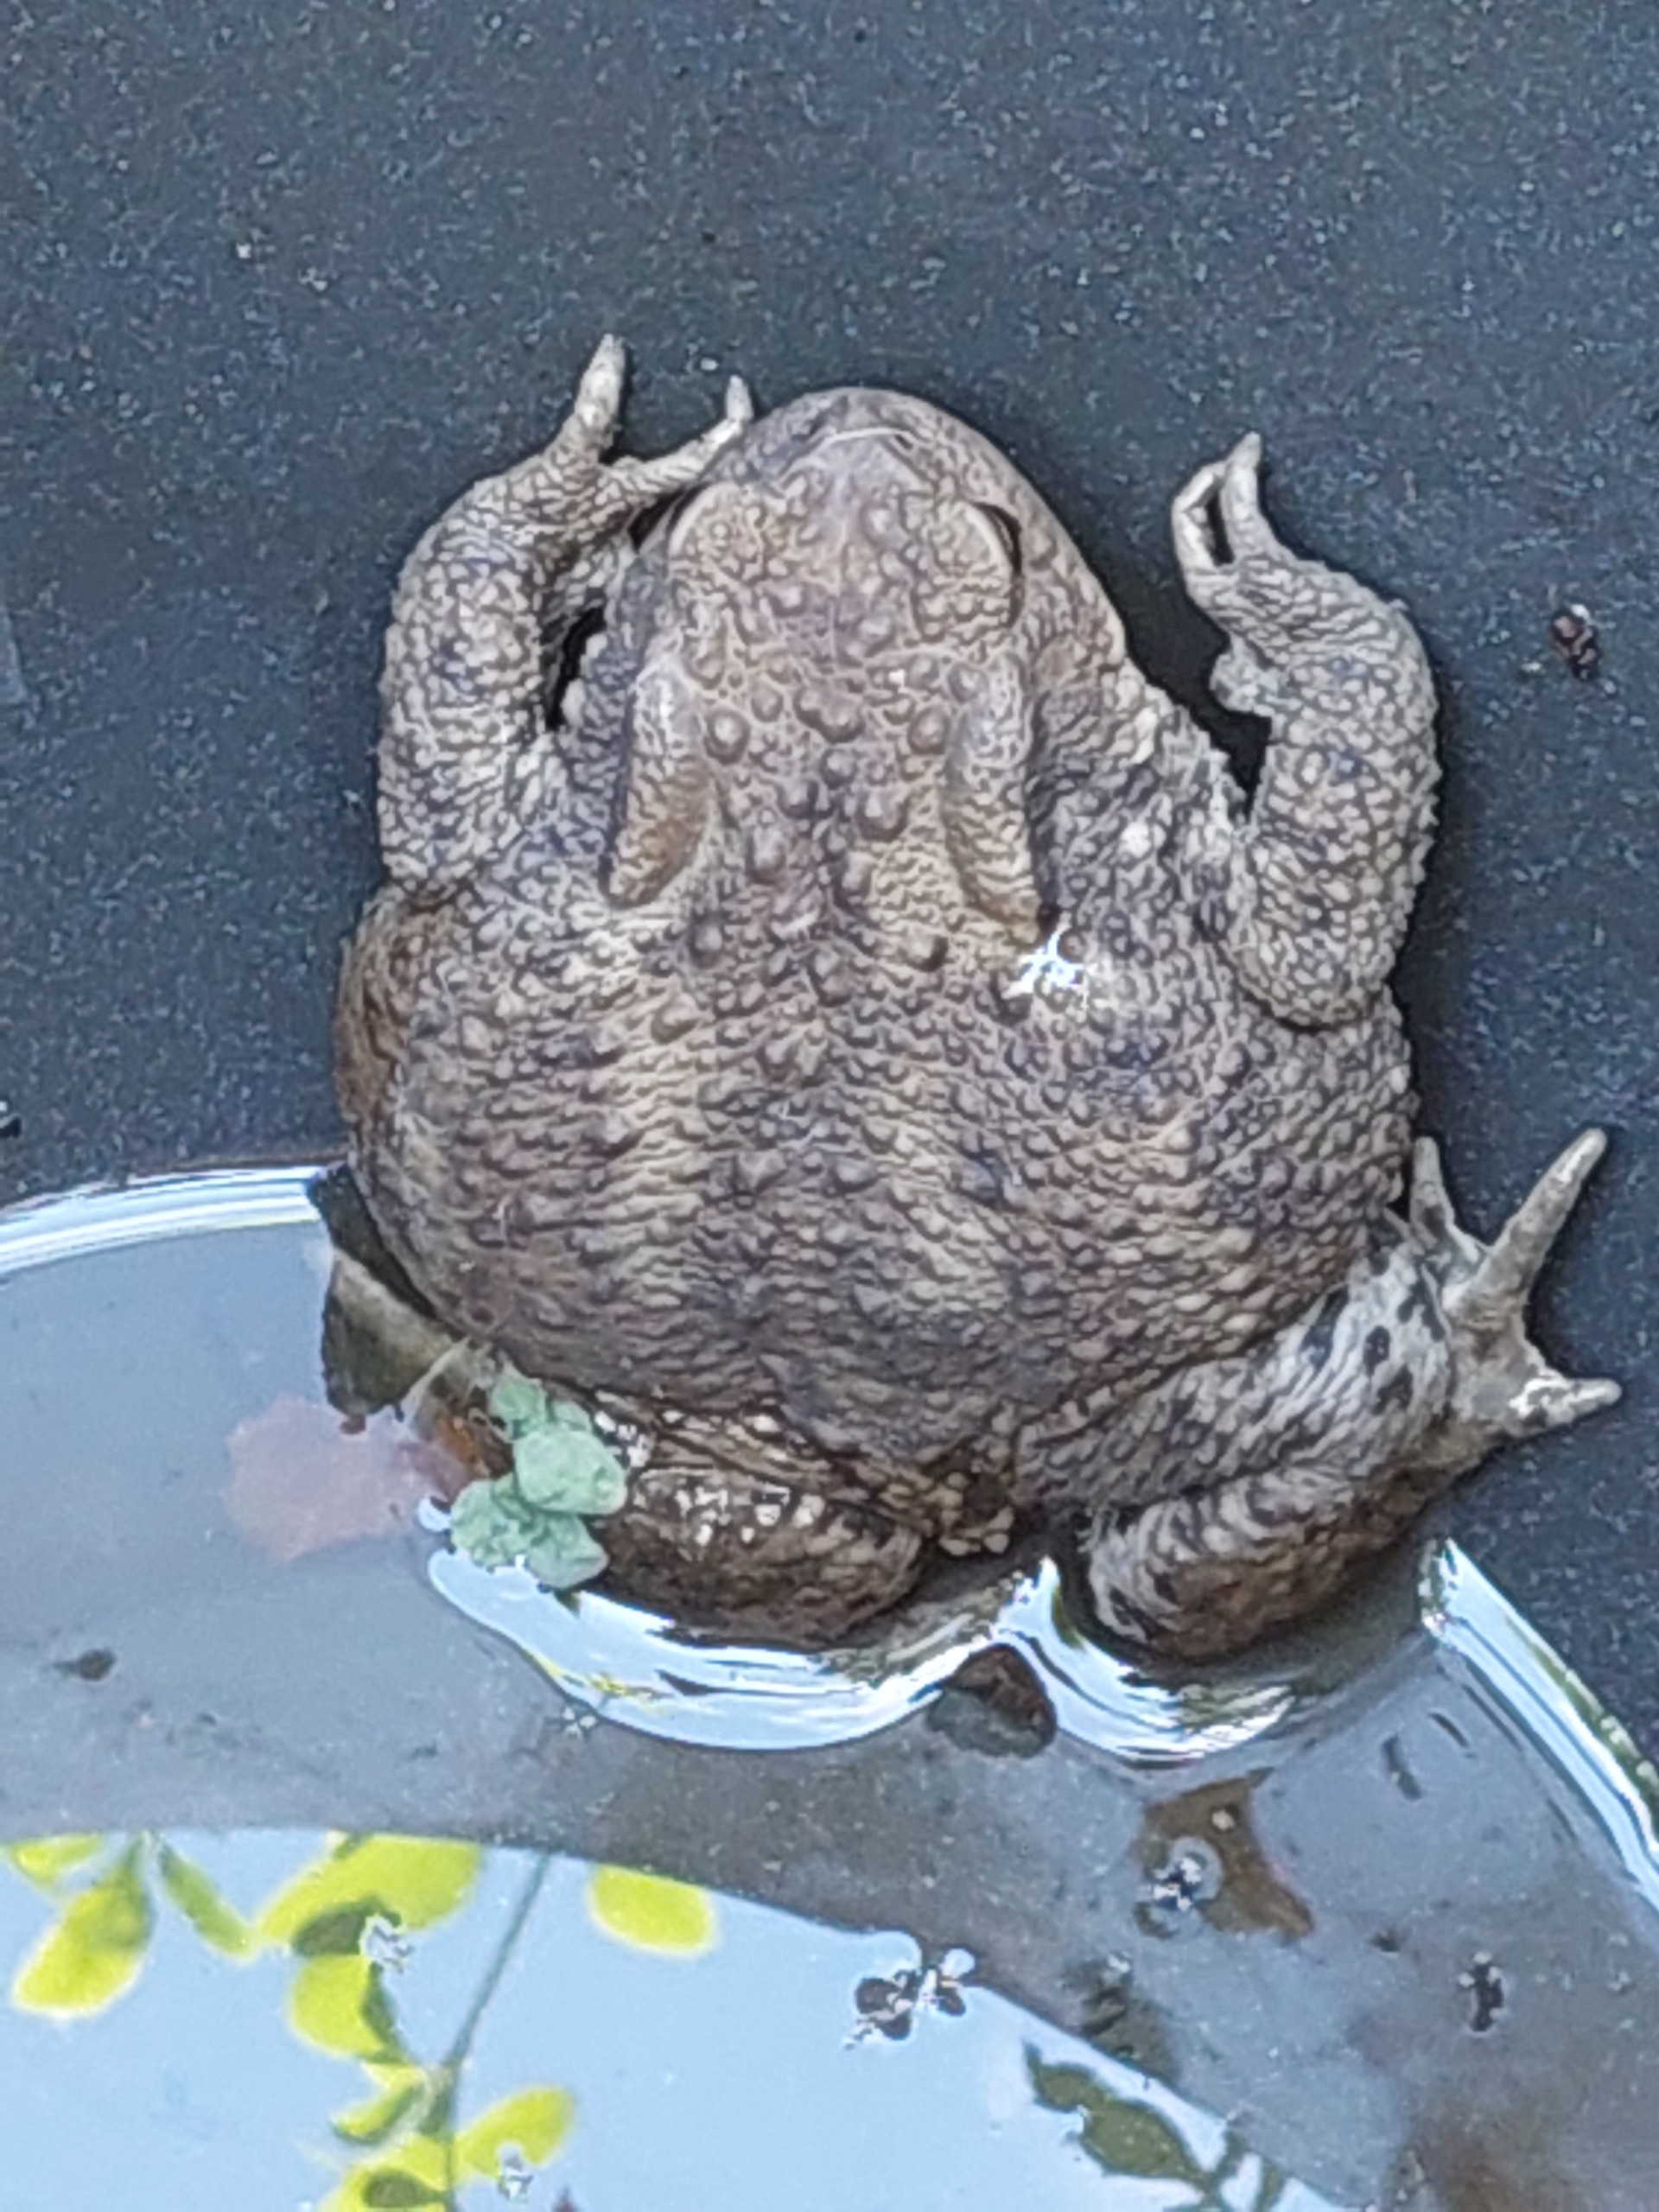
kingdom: Animalia
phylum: Chordata
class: Amphibia
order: Anura
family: Bufonidae
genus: Bufo
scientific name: Bufo bufo
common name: Skrubtudse
